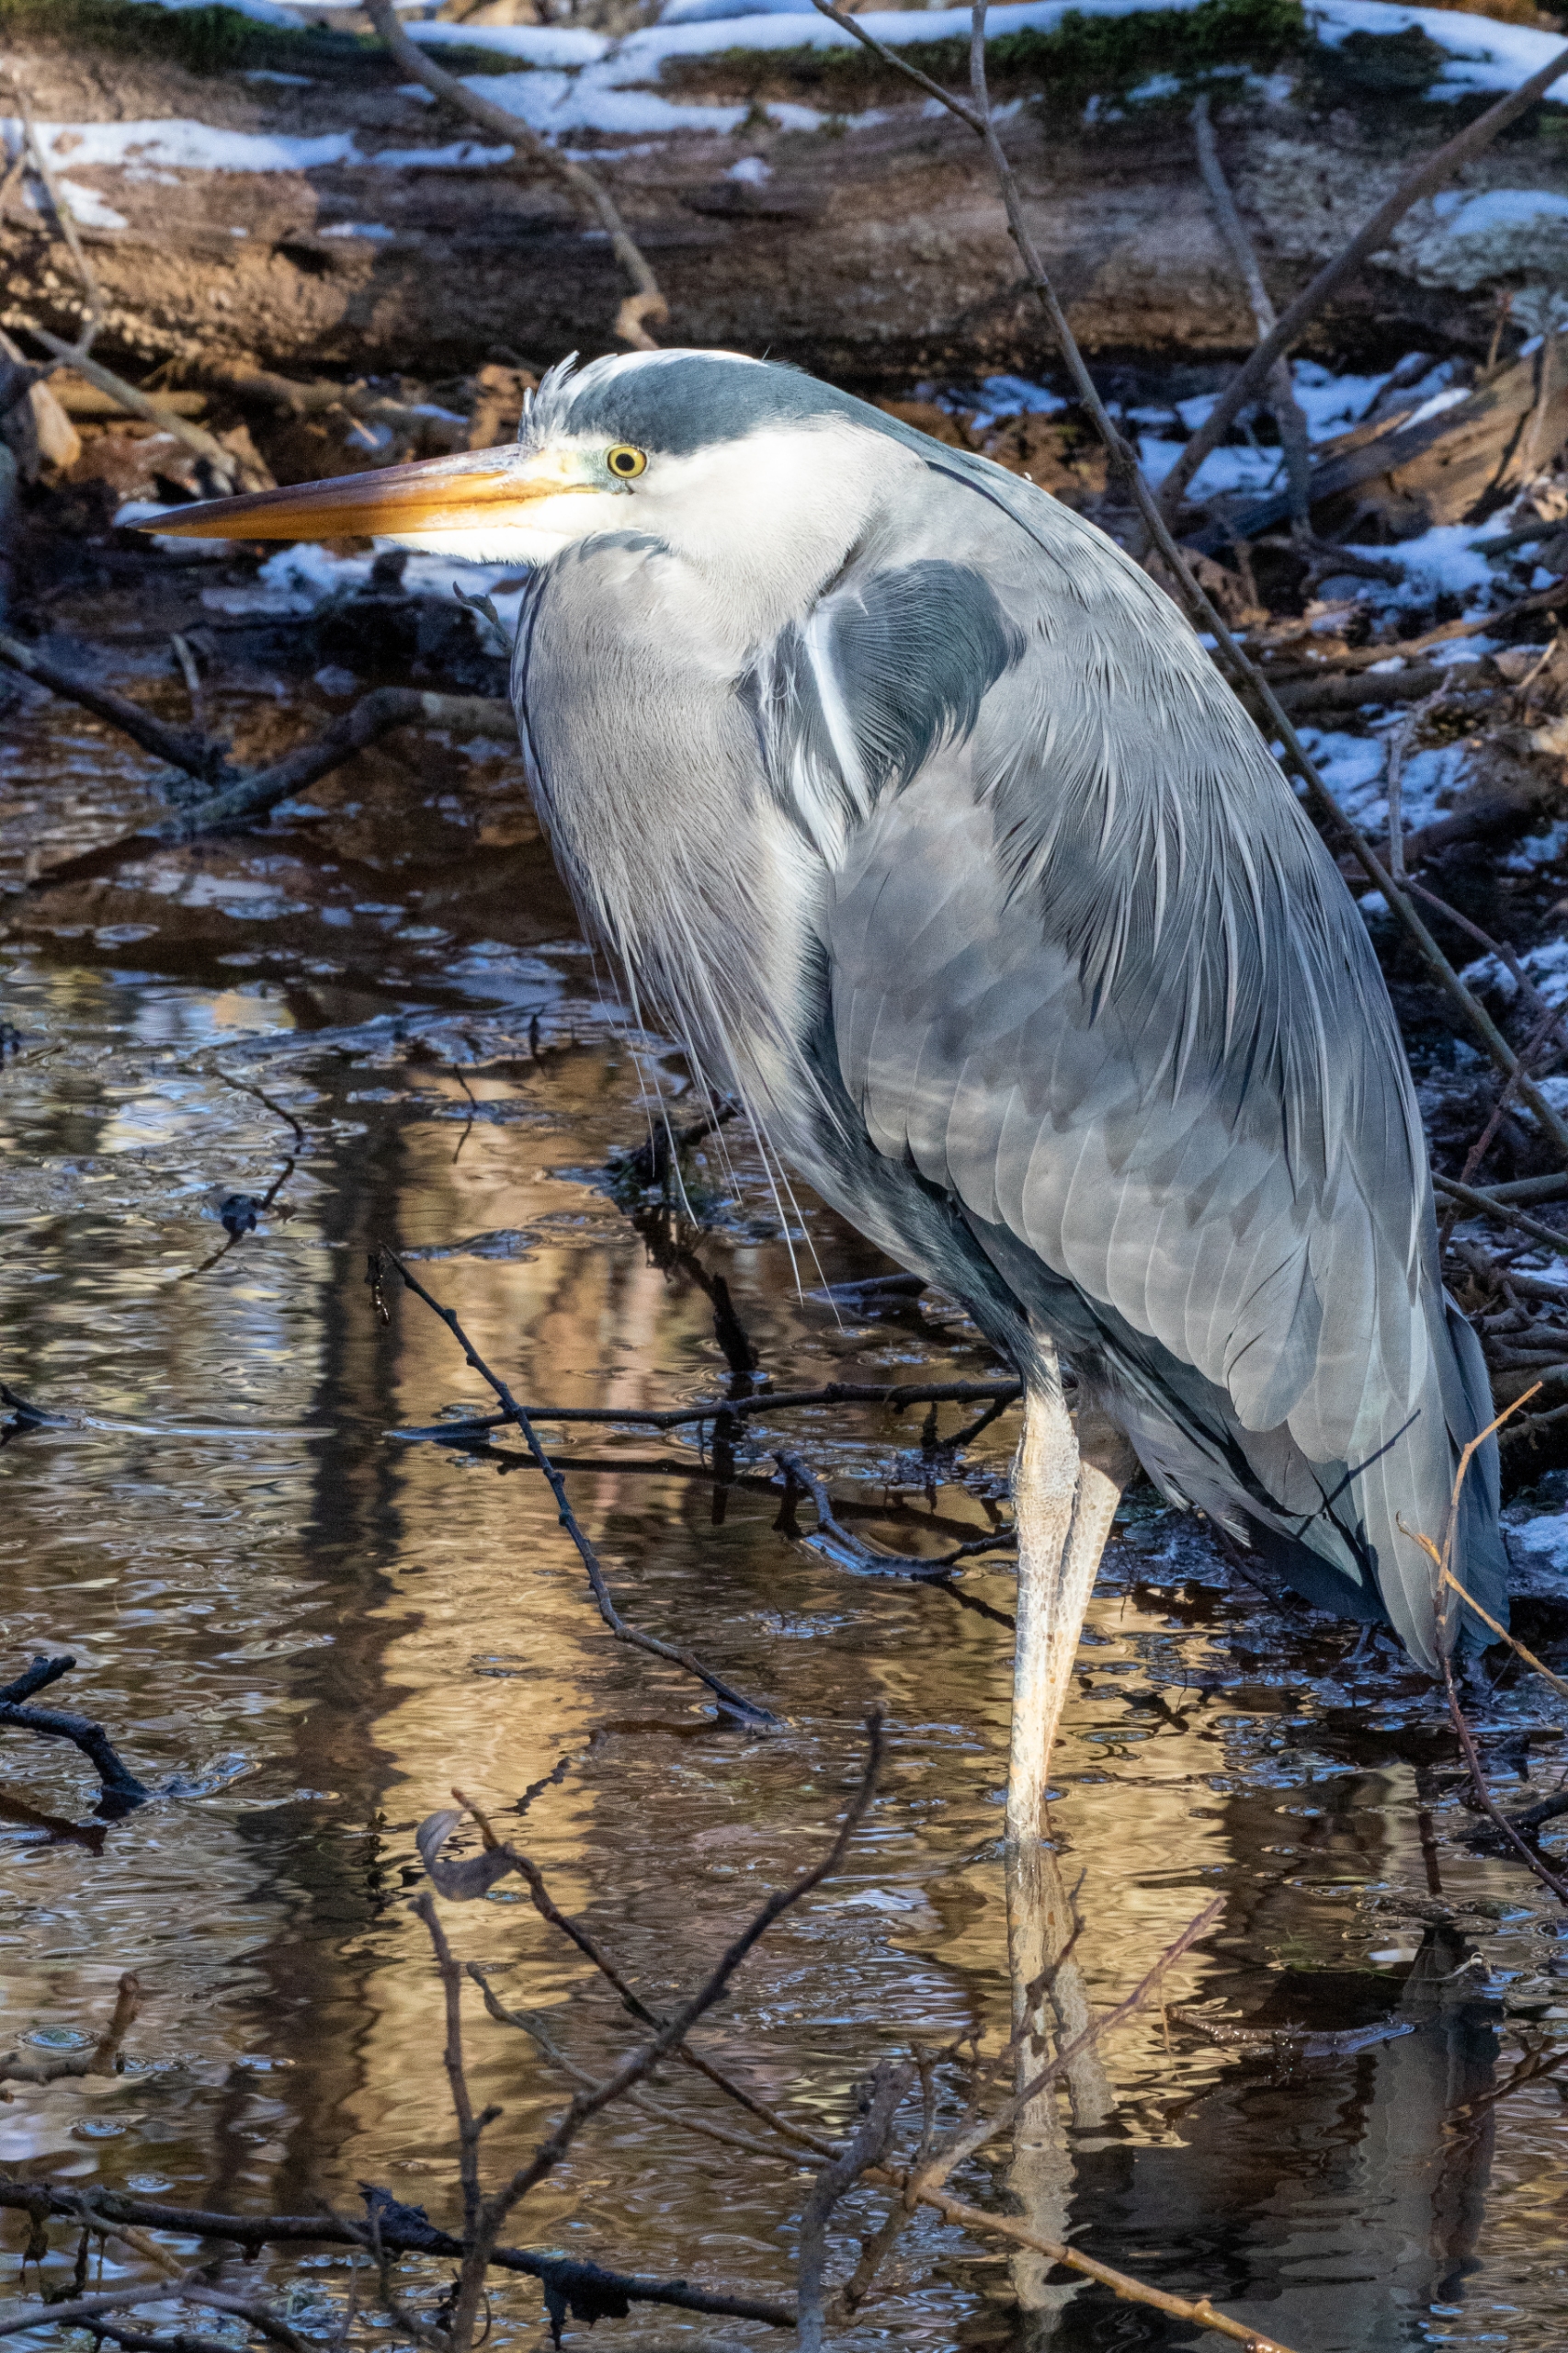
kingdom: Animalia
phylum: Chordata
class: Aves
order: Pelecaniformes
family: Ardeidae
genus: Ardea
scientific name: Ardea cinerea
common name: Fiskehejre
